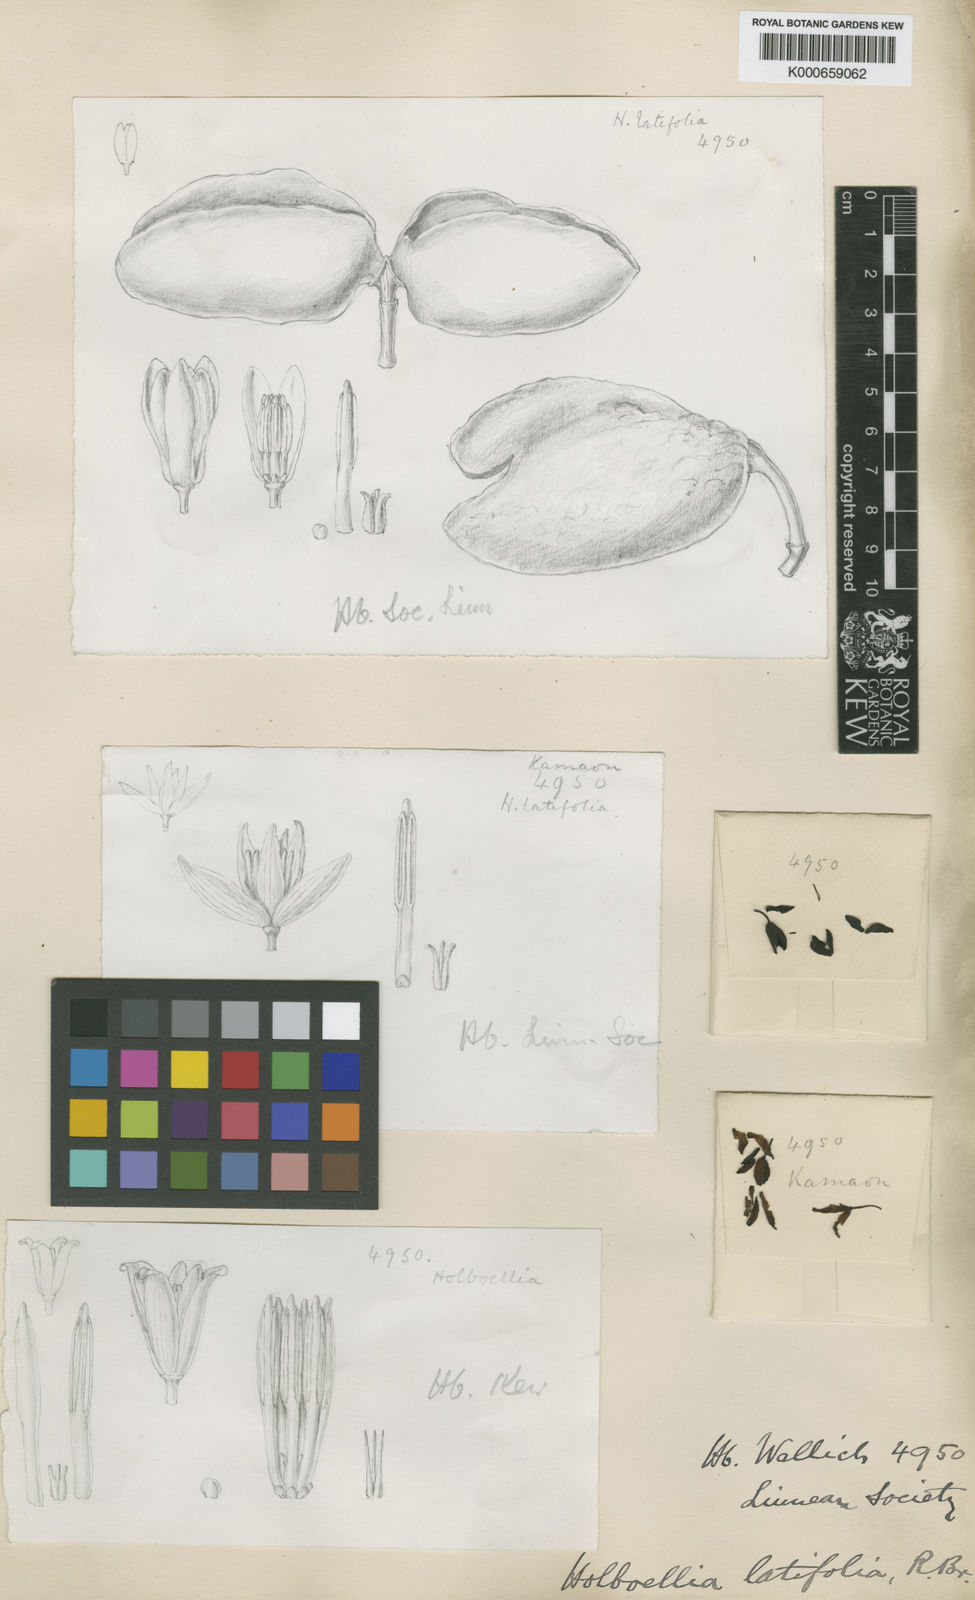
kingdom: Plantae
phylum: Tracheophyta
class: Magnoliopsida
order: Ranunculales
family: Lardizabalaceae
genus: Stauntonia
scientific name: Stauntonia latifolia
